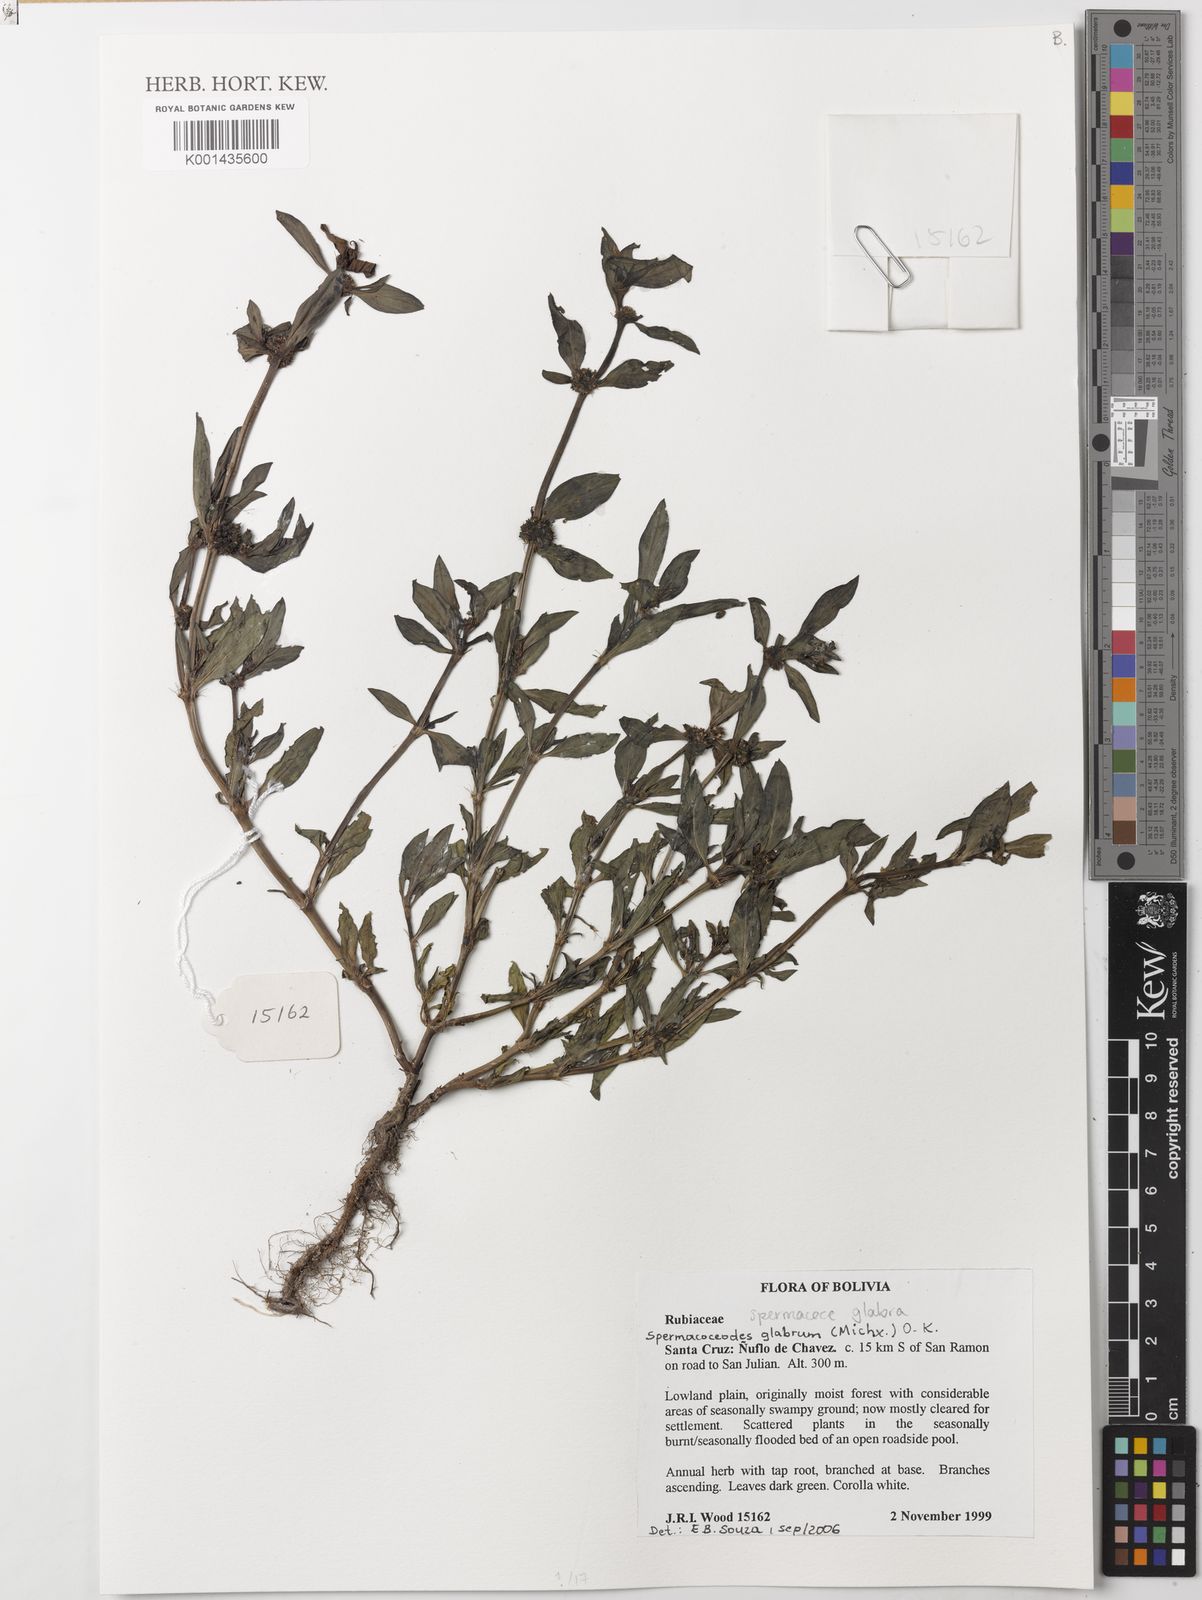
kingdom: Plantae
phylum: Tracheophyta
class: Magnoliopsida
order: Gentianales
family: Rubiaceae
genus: Spermacoce
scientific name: Spermacoce glabra
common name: Smooth buttonweed
